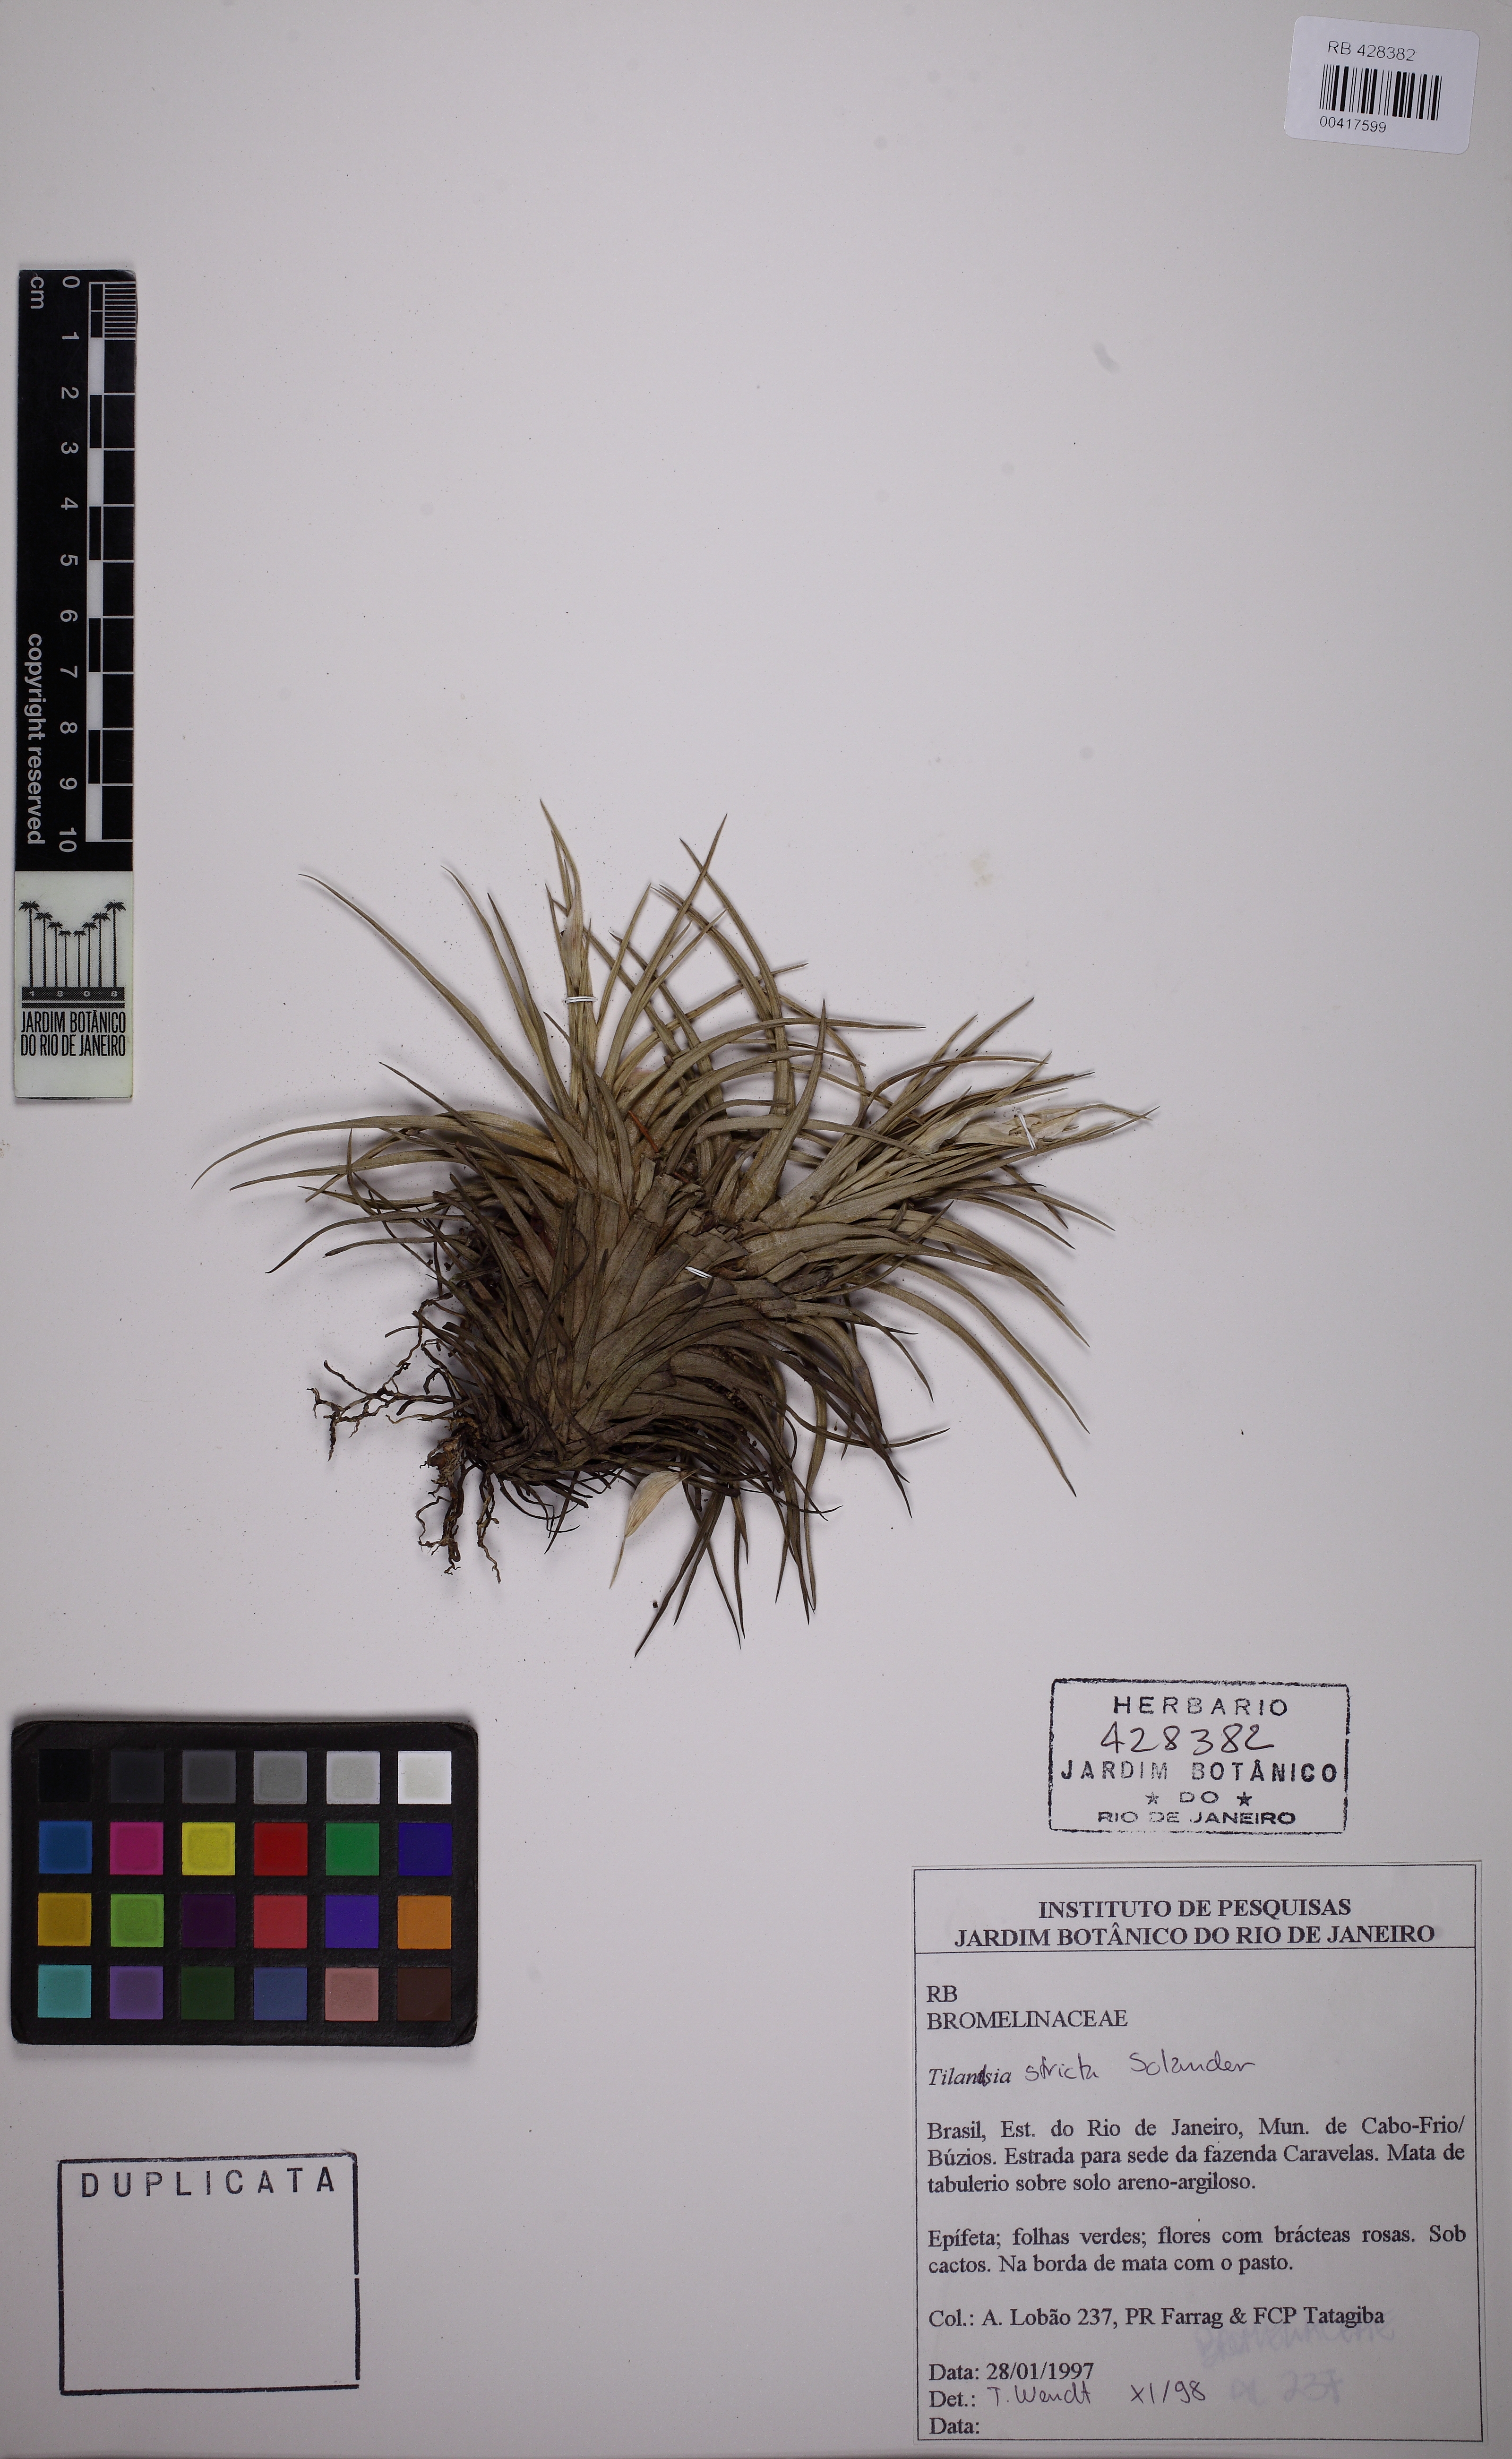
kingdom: Plantae
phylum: Tracheophyta
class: Liliopsida
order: Poales
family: Bromeliaceae
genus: Tillandsia
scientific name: Tillandsia stricta
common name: Airplant
